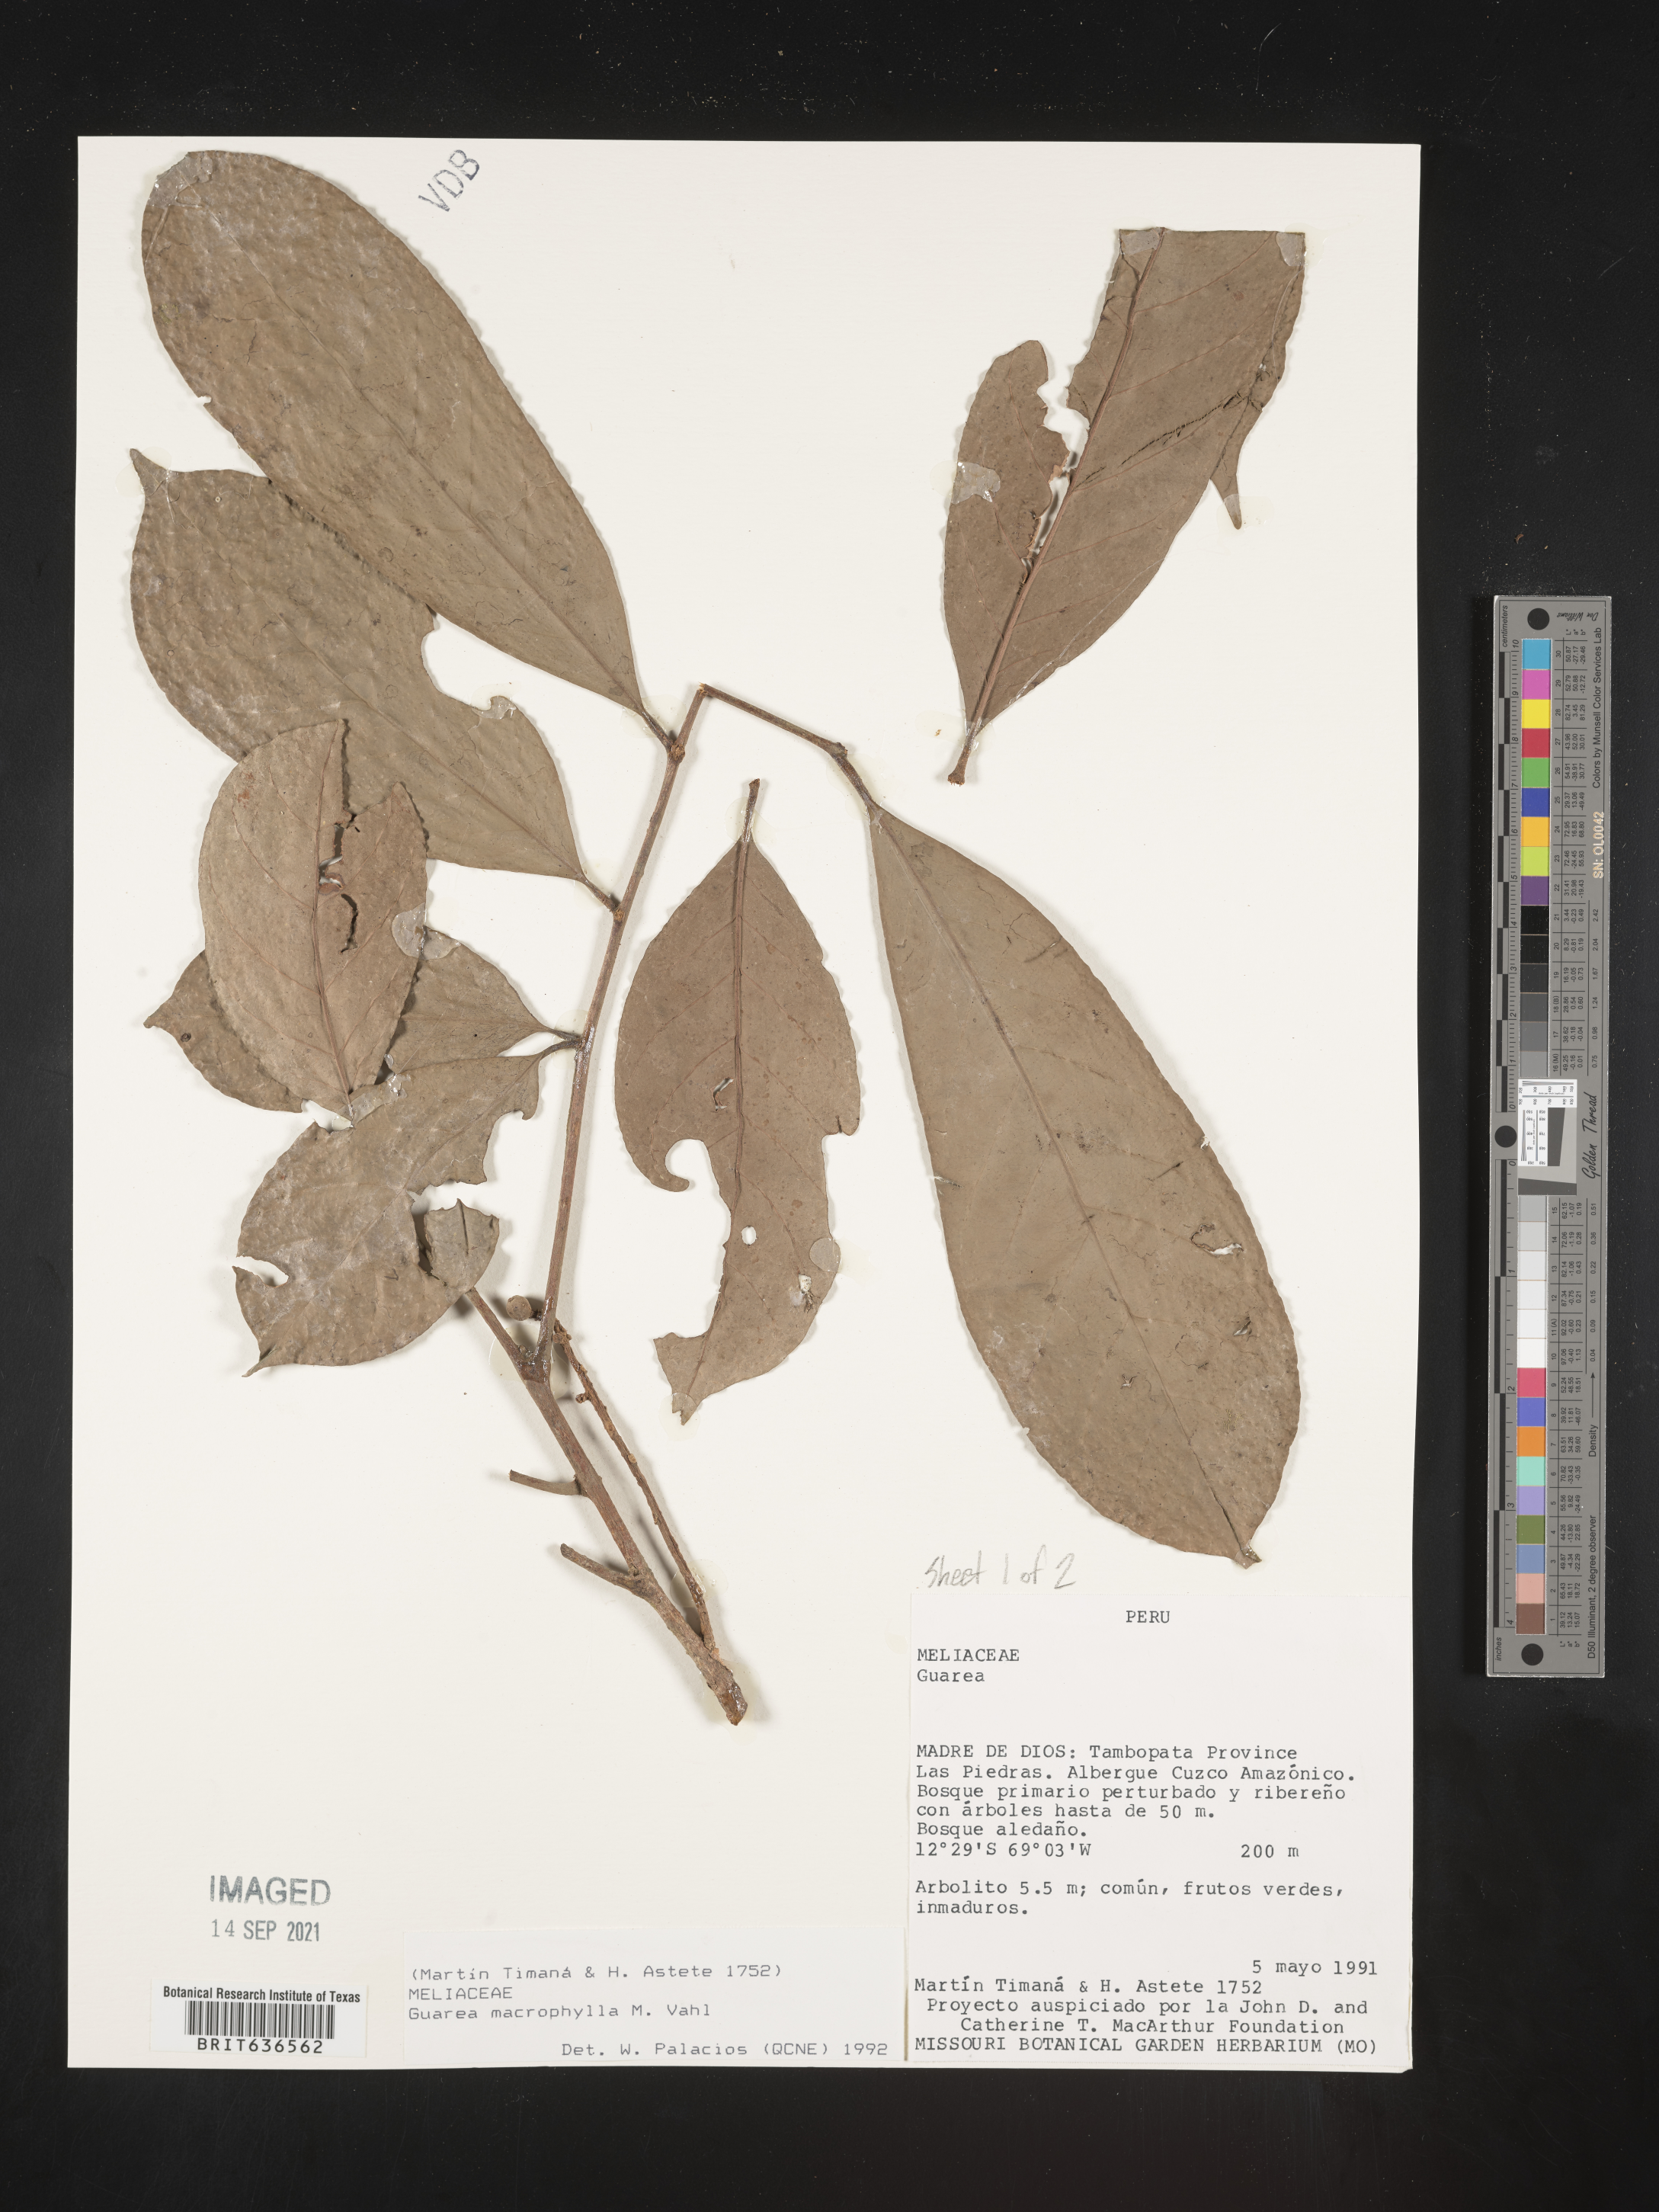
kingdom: Plantae
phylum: Tracheophyta
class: Magnoliopsida
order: Sapindales
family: Meliaceae
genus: Guarea
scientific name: Guarea
